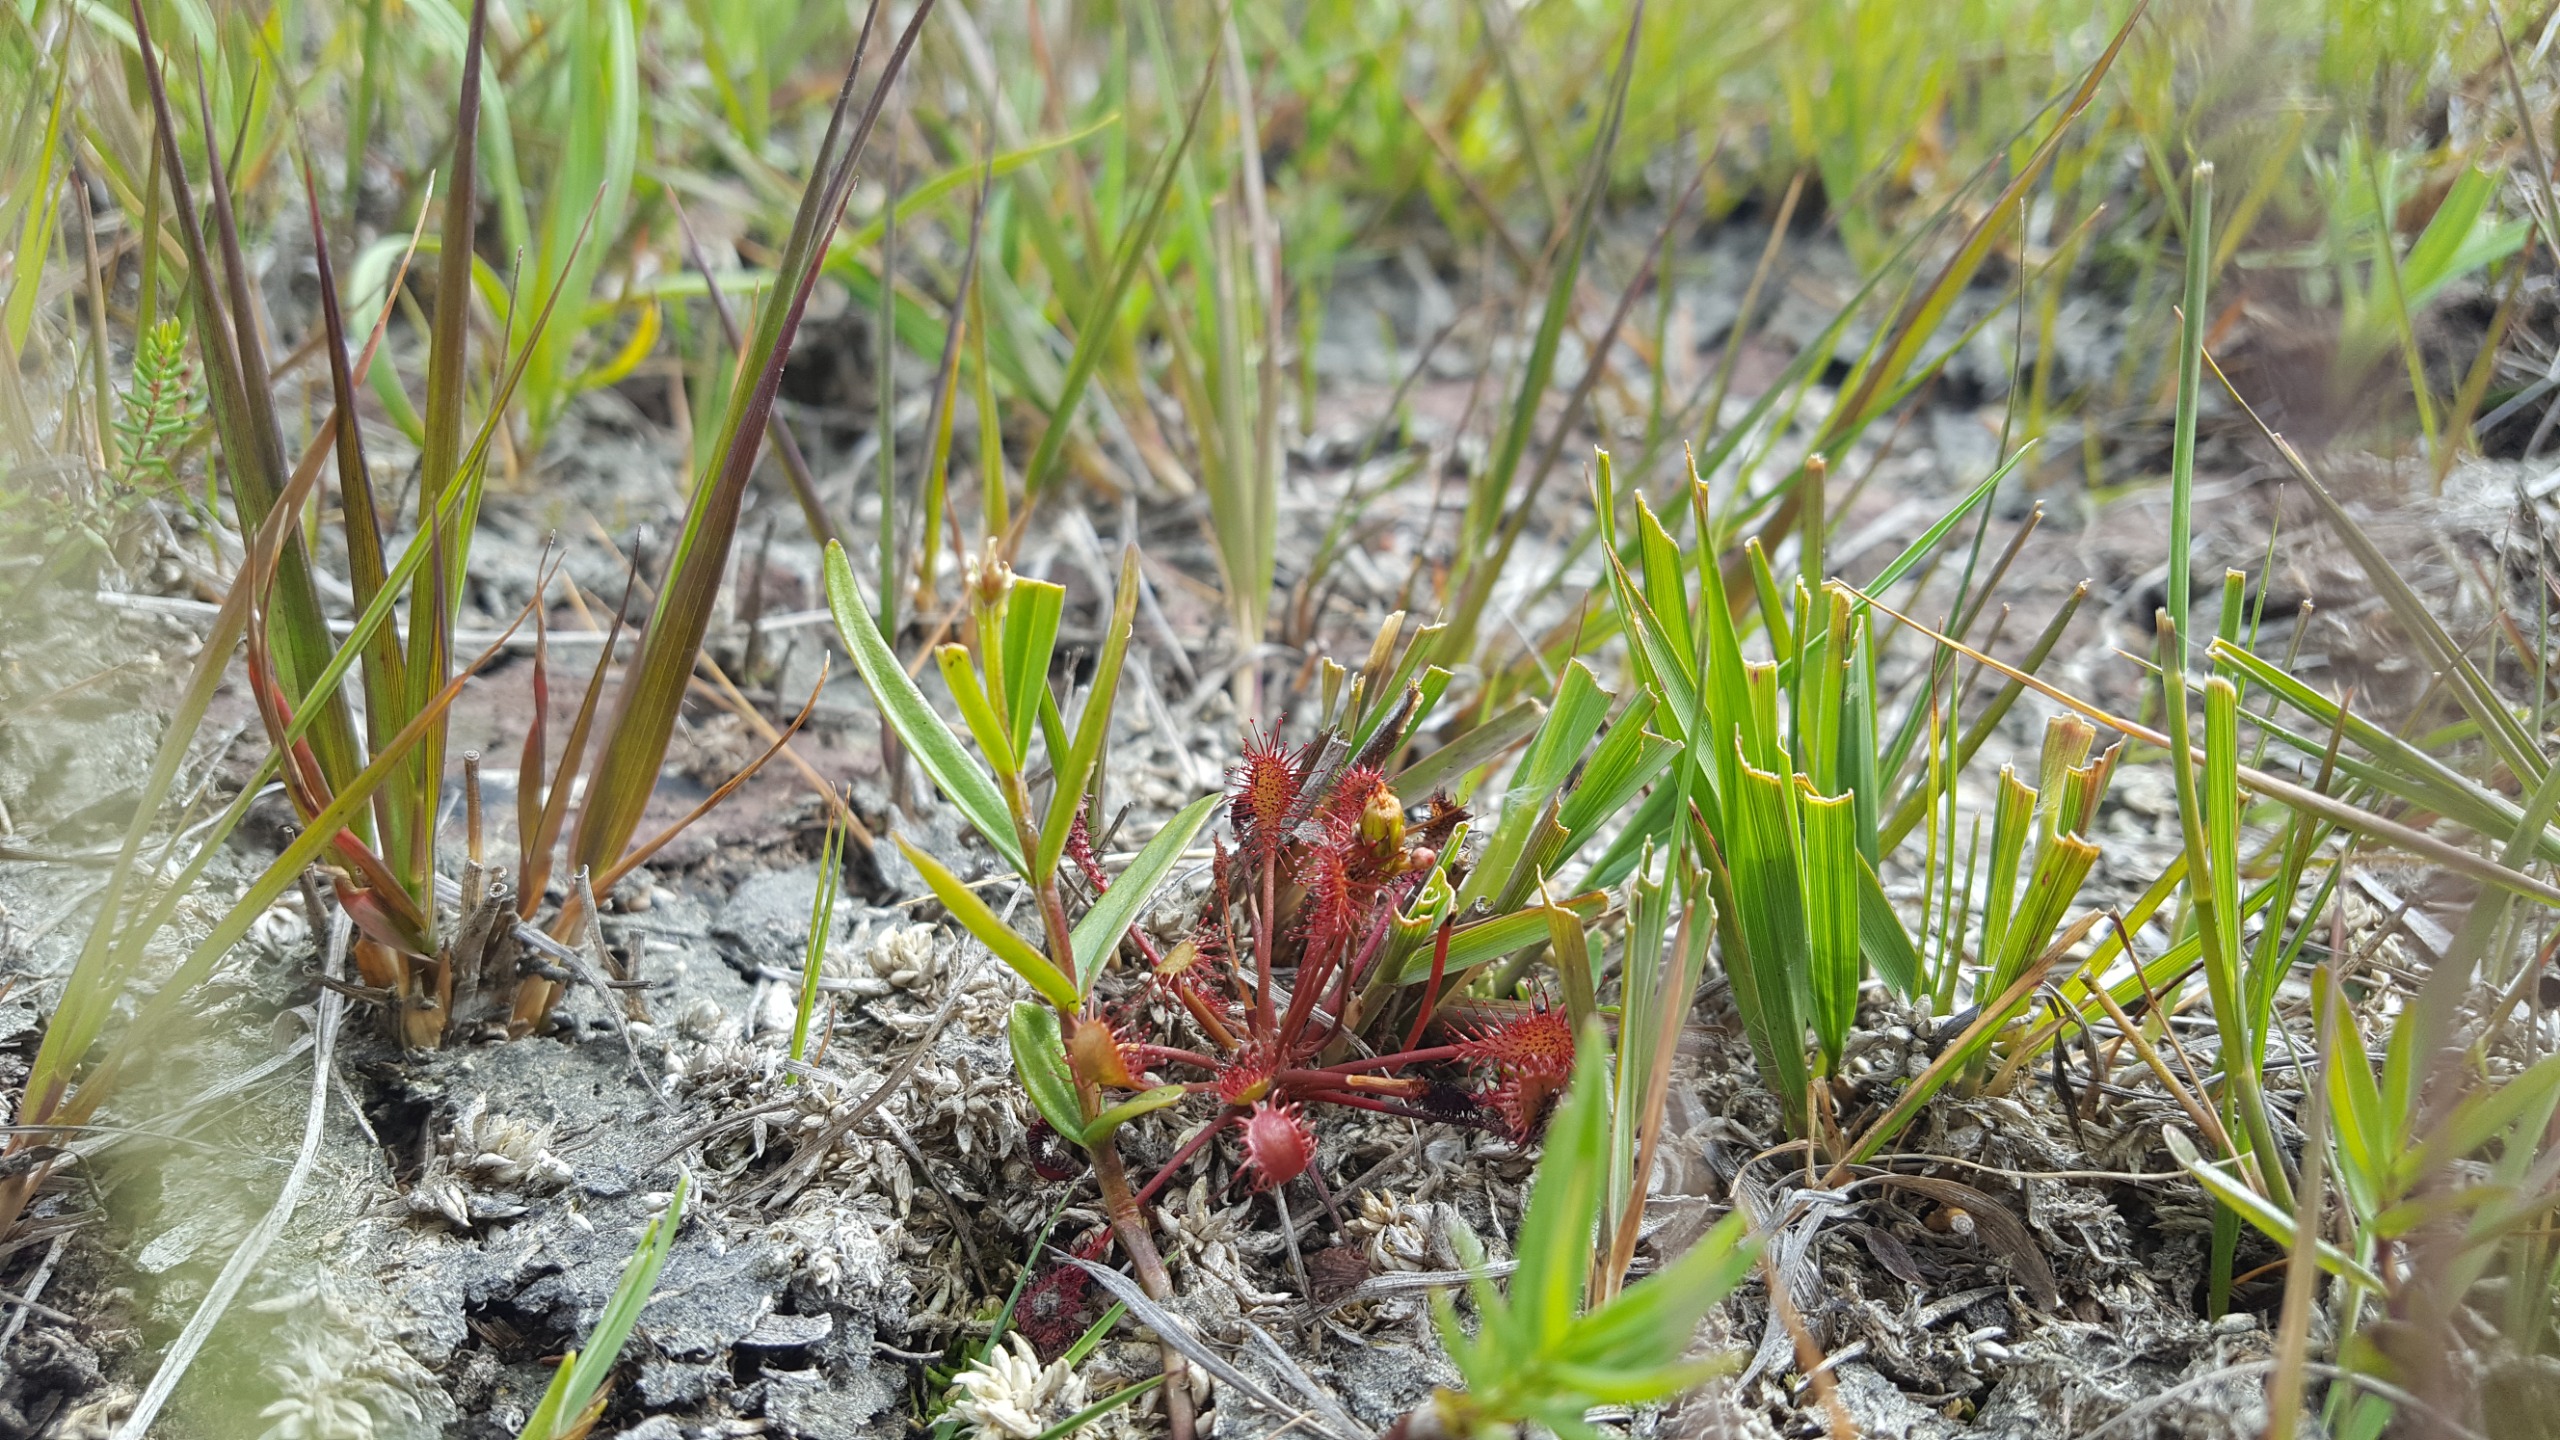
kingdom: Plantae
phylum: Tracheophyta
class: Magnoliopsida
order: Caryophyllales
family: Droseraceae
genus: Drosera
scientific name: Drosera intermedia
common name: Liden soldug
